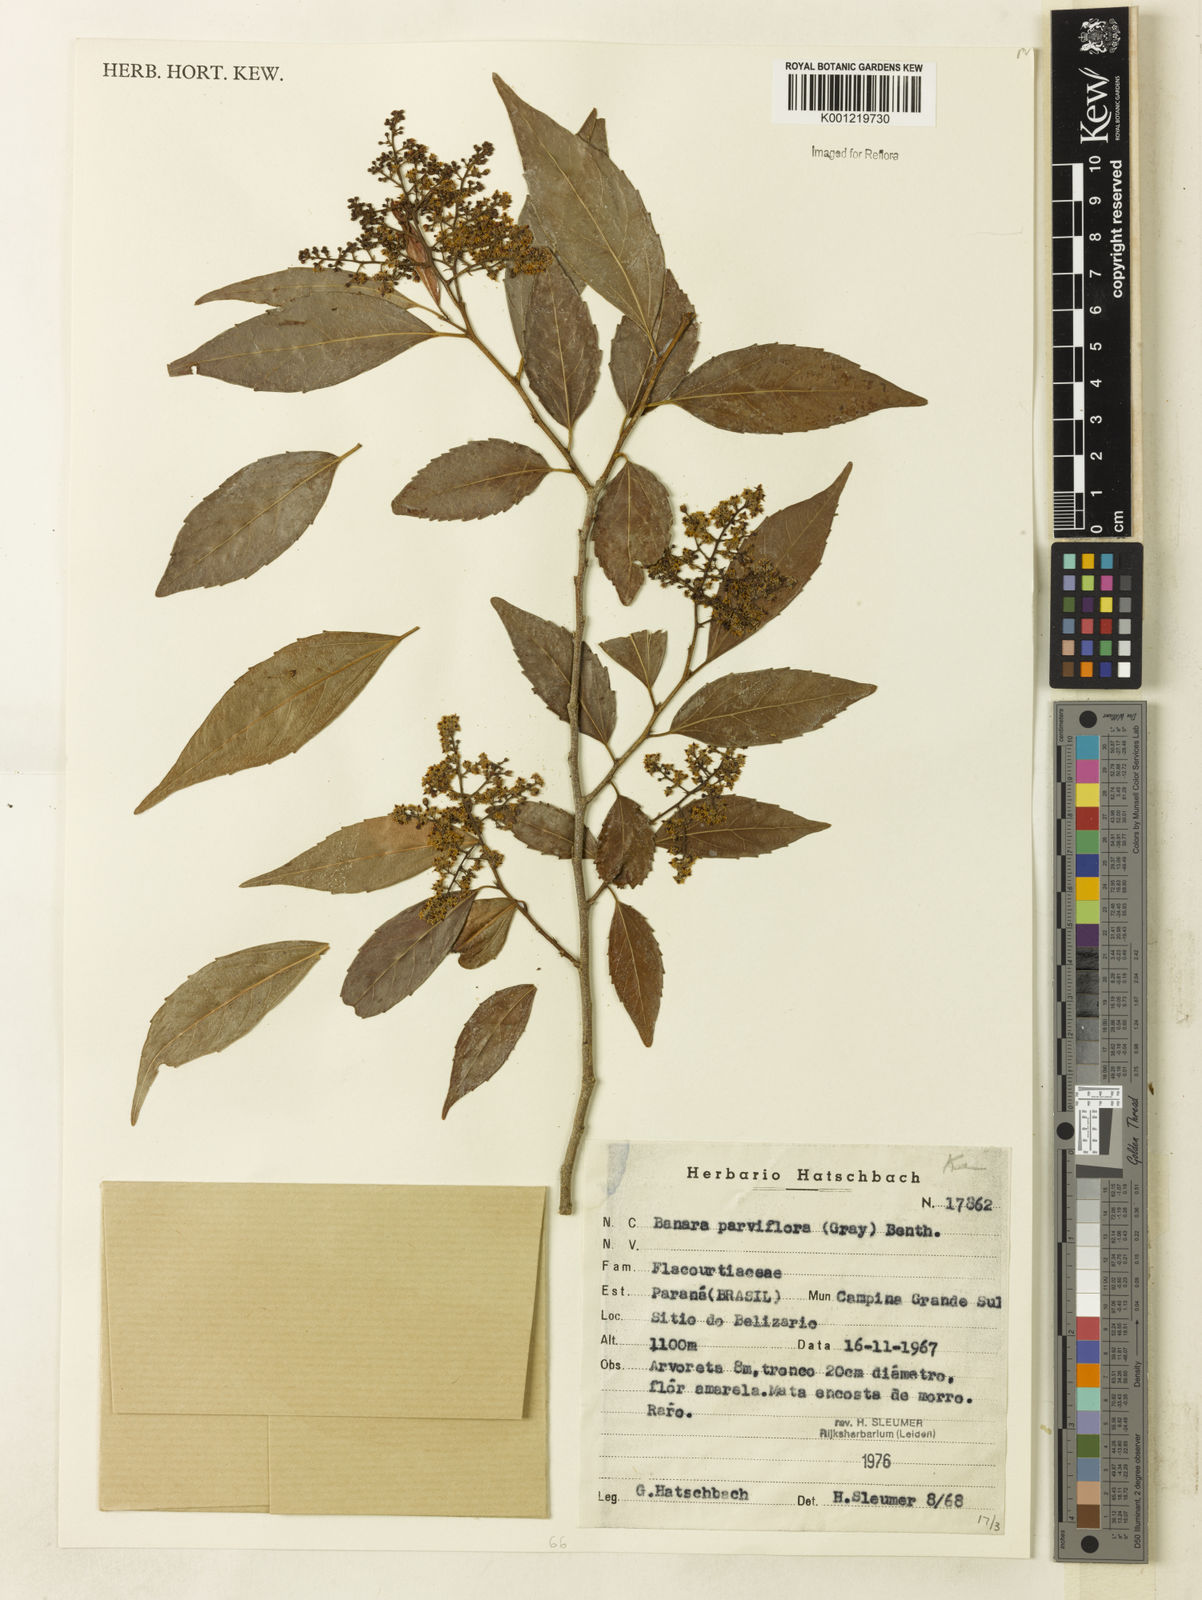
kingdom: Plantae
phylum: Tracheophyta
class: Magnoliopsida
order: Malpighiales
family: Salicaceae
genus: Banara
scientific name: Banara parviflora
